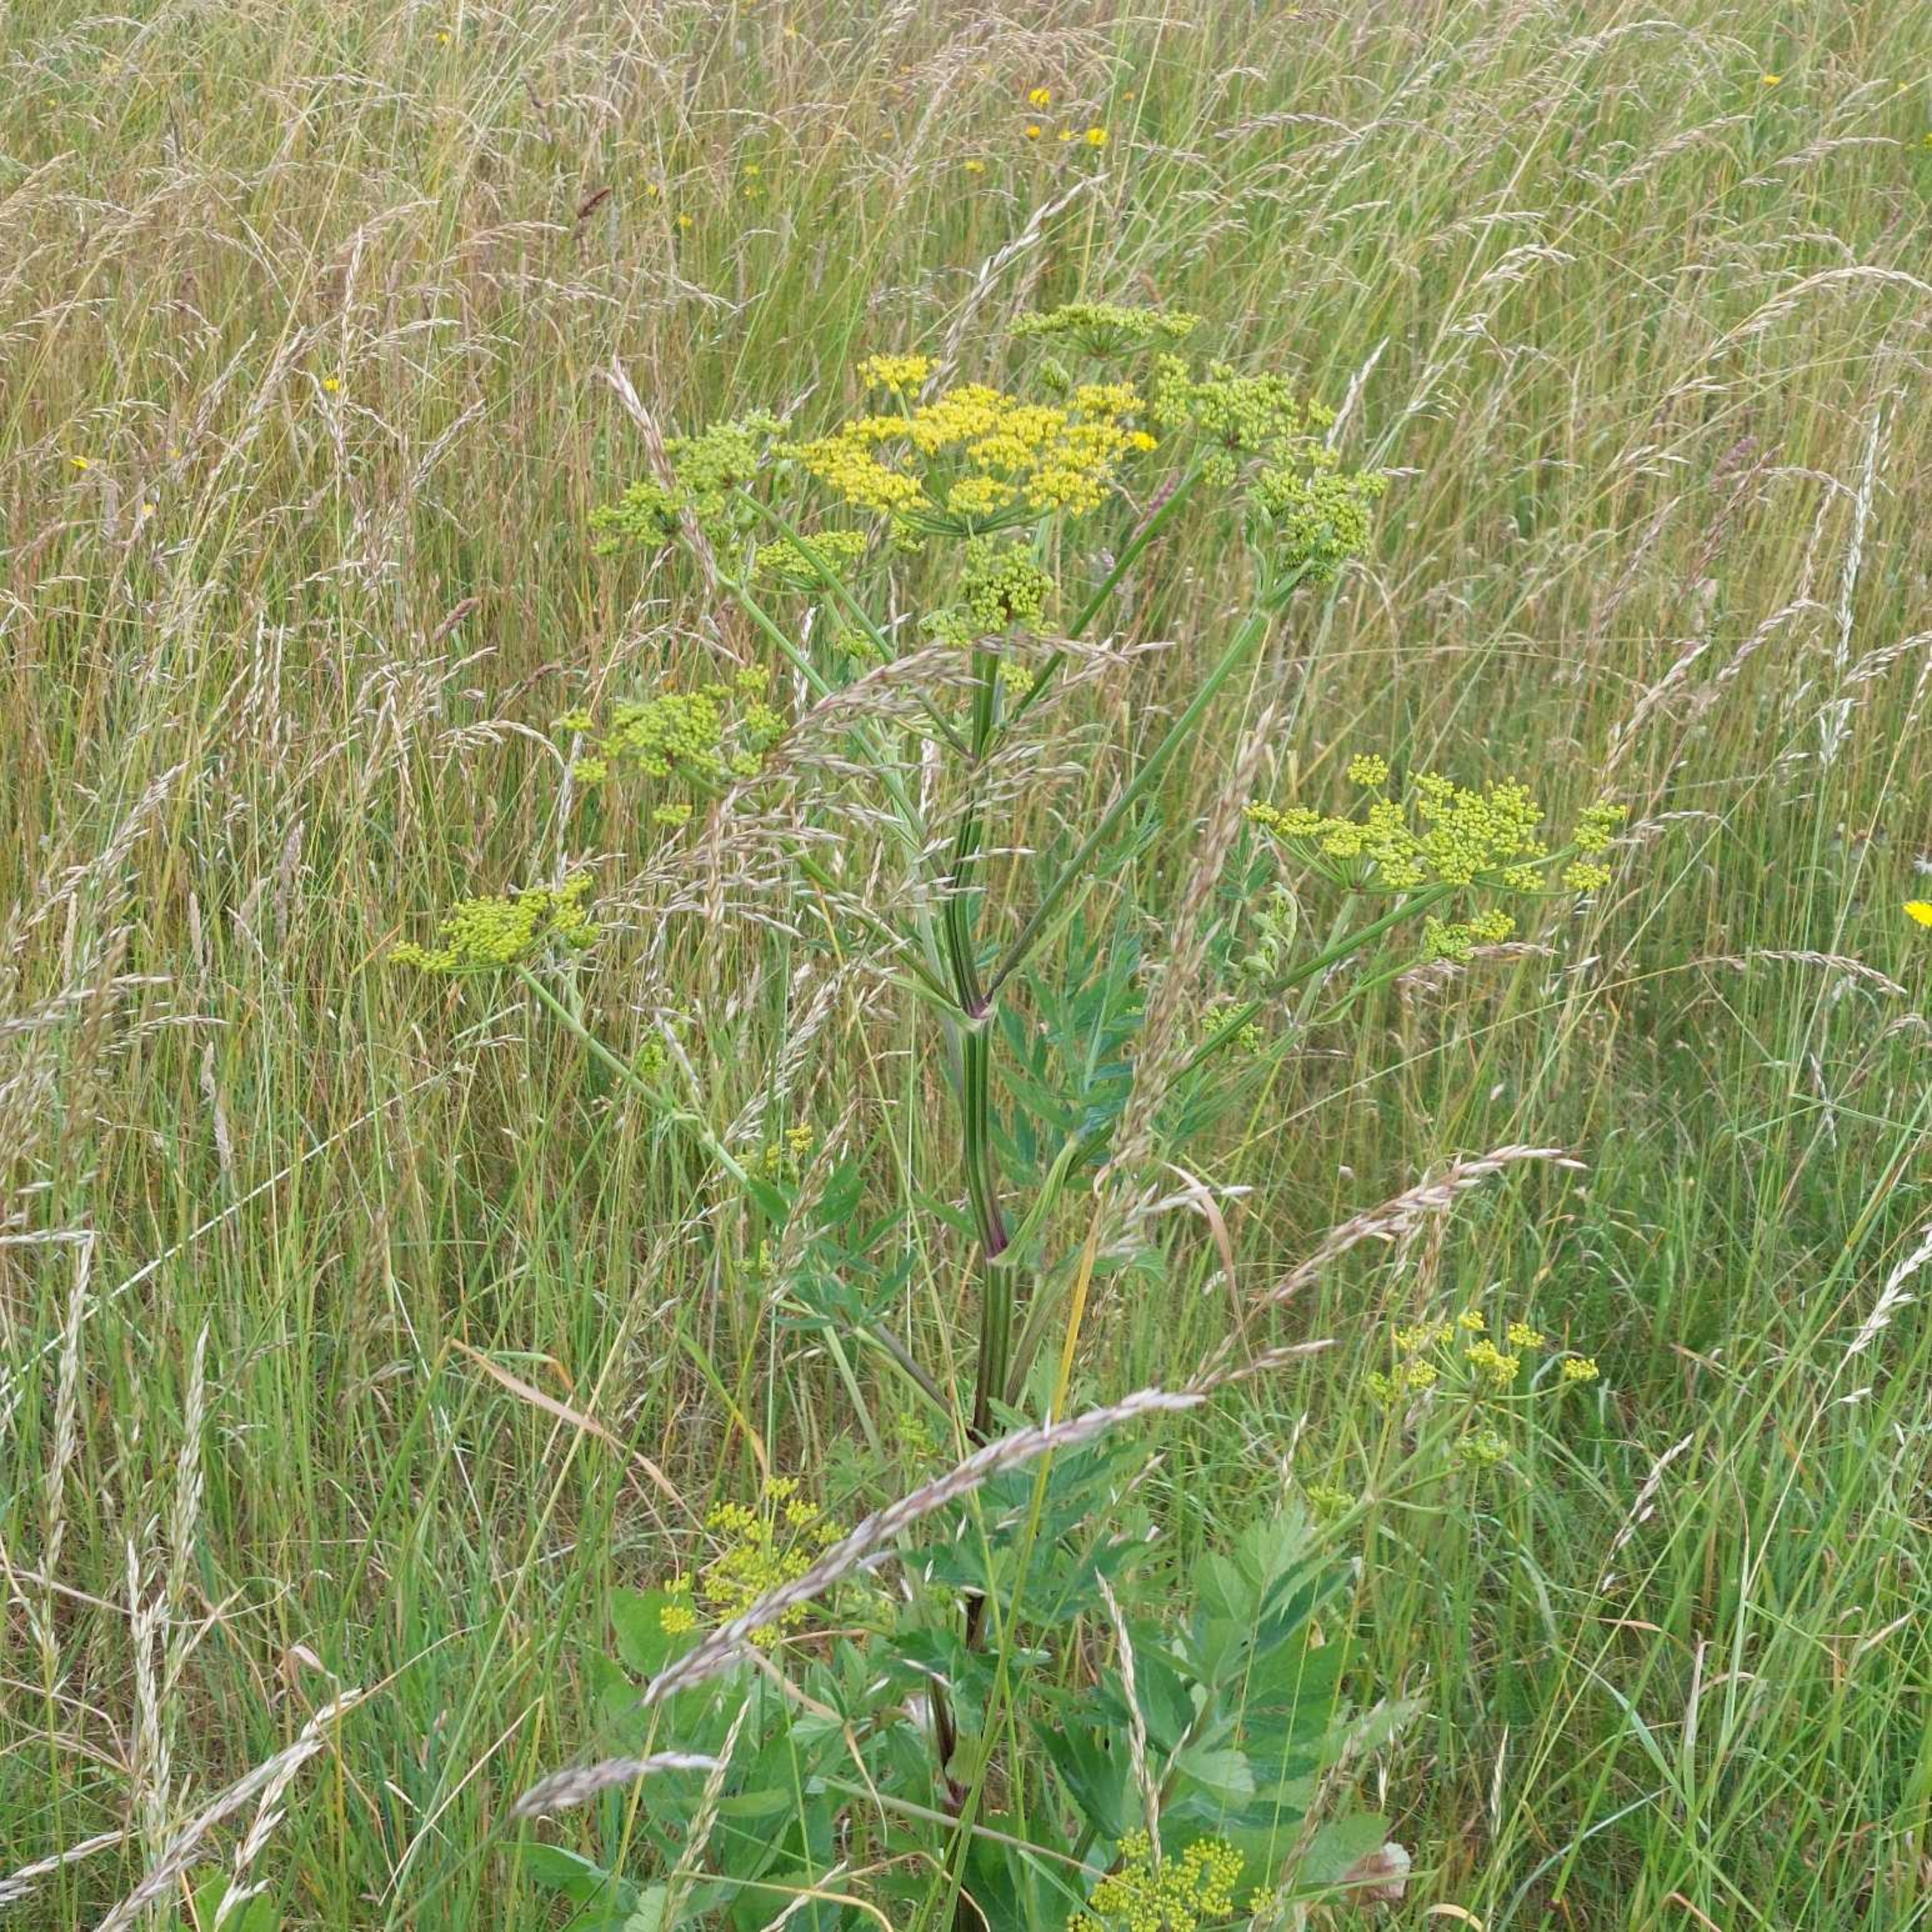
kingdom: Plantae
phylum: Tracheophyta
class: Magnoliopsida
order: Apiales
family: Apiaceae
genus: Pastinaca
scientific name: Pastinaca sativa
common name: Pastinak
